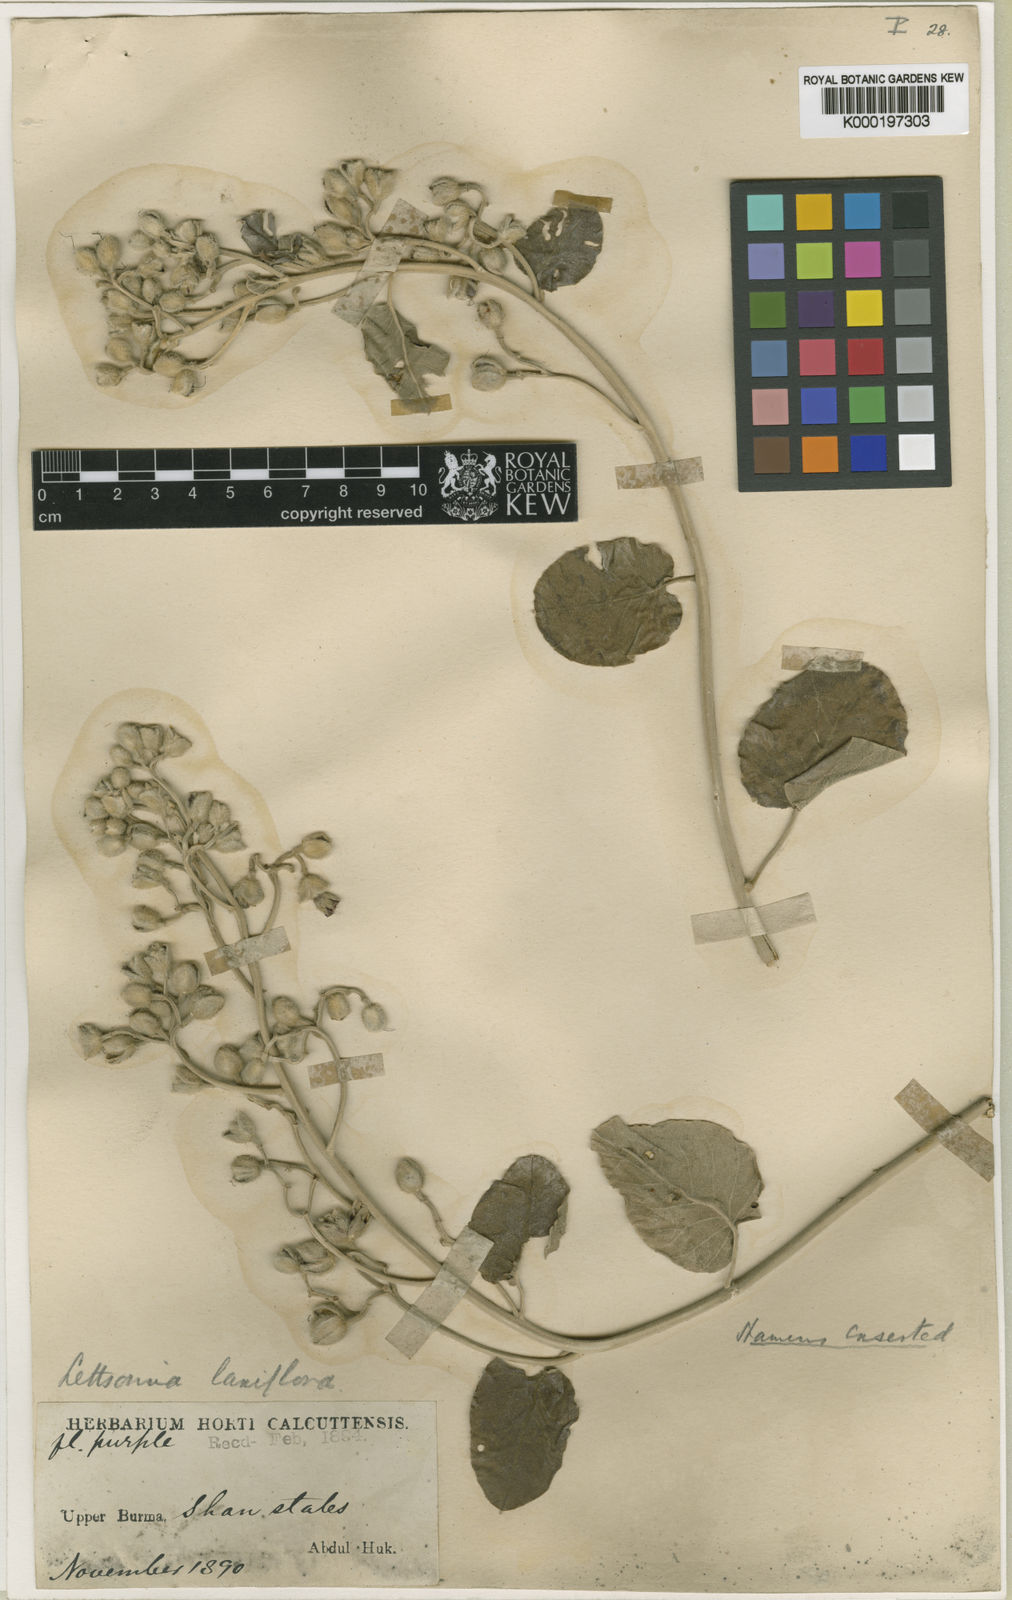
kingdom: Plantae
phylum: Tracheophyta
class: Magnoliopsida
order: Solanales
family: Convolvulaceae
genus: Argyreia
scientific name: Argyreia
